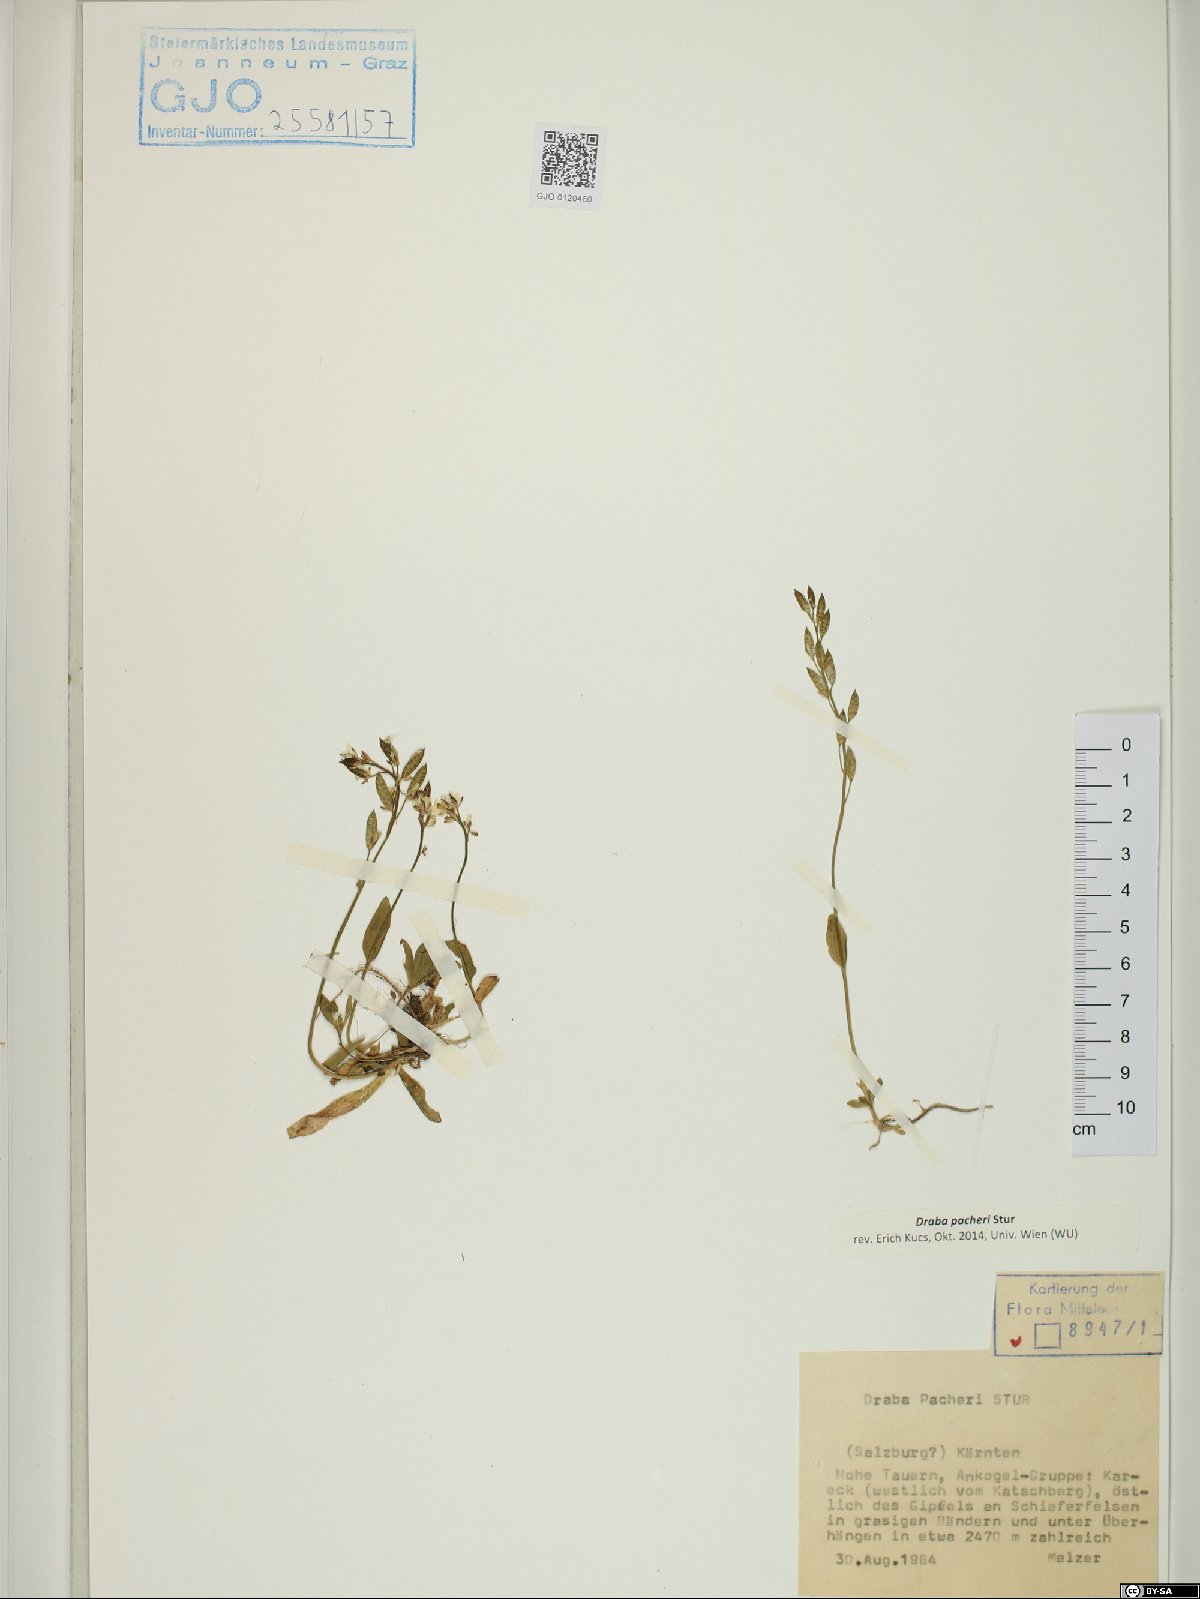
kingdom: Plantae
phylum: Tracheophyta
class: Magnoliopsida
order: Brassicales
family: Brassicaceae
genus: Draba
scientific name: Draba pacheri
